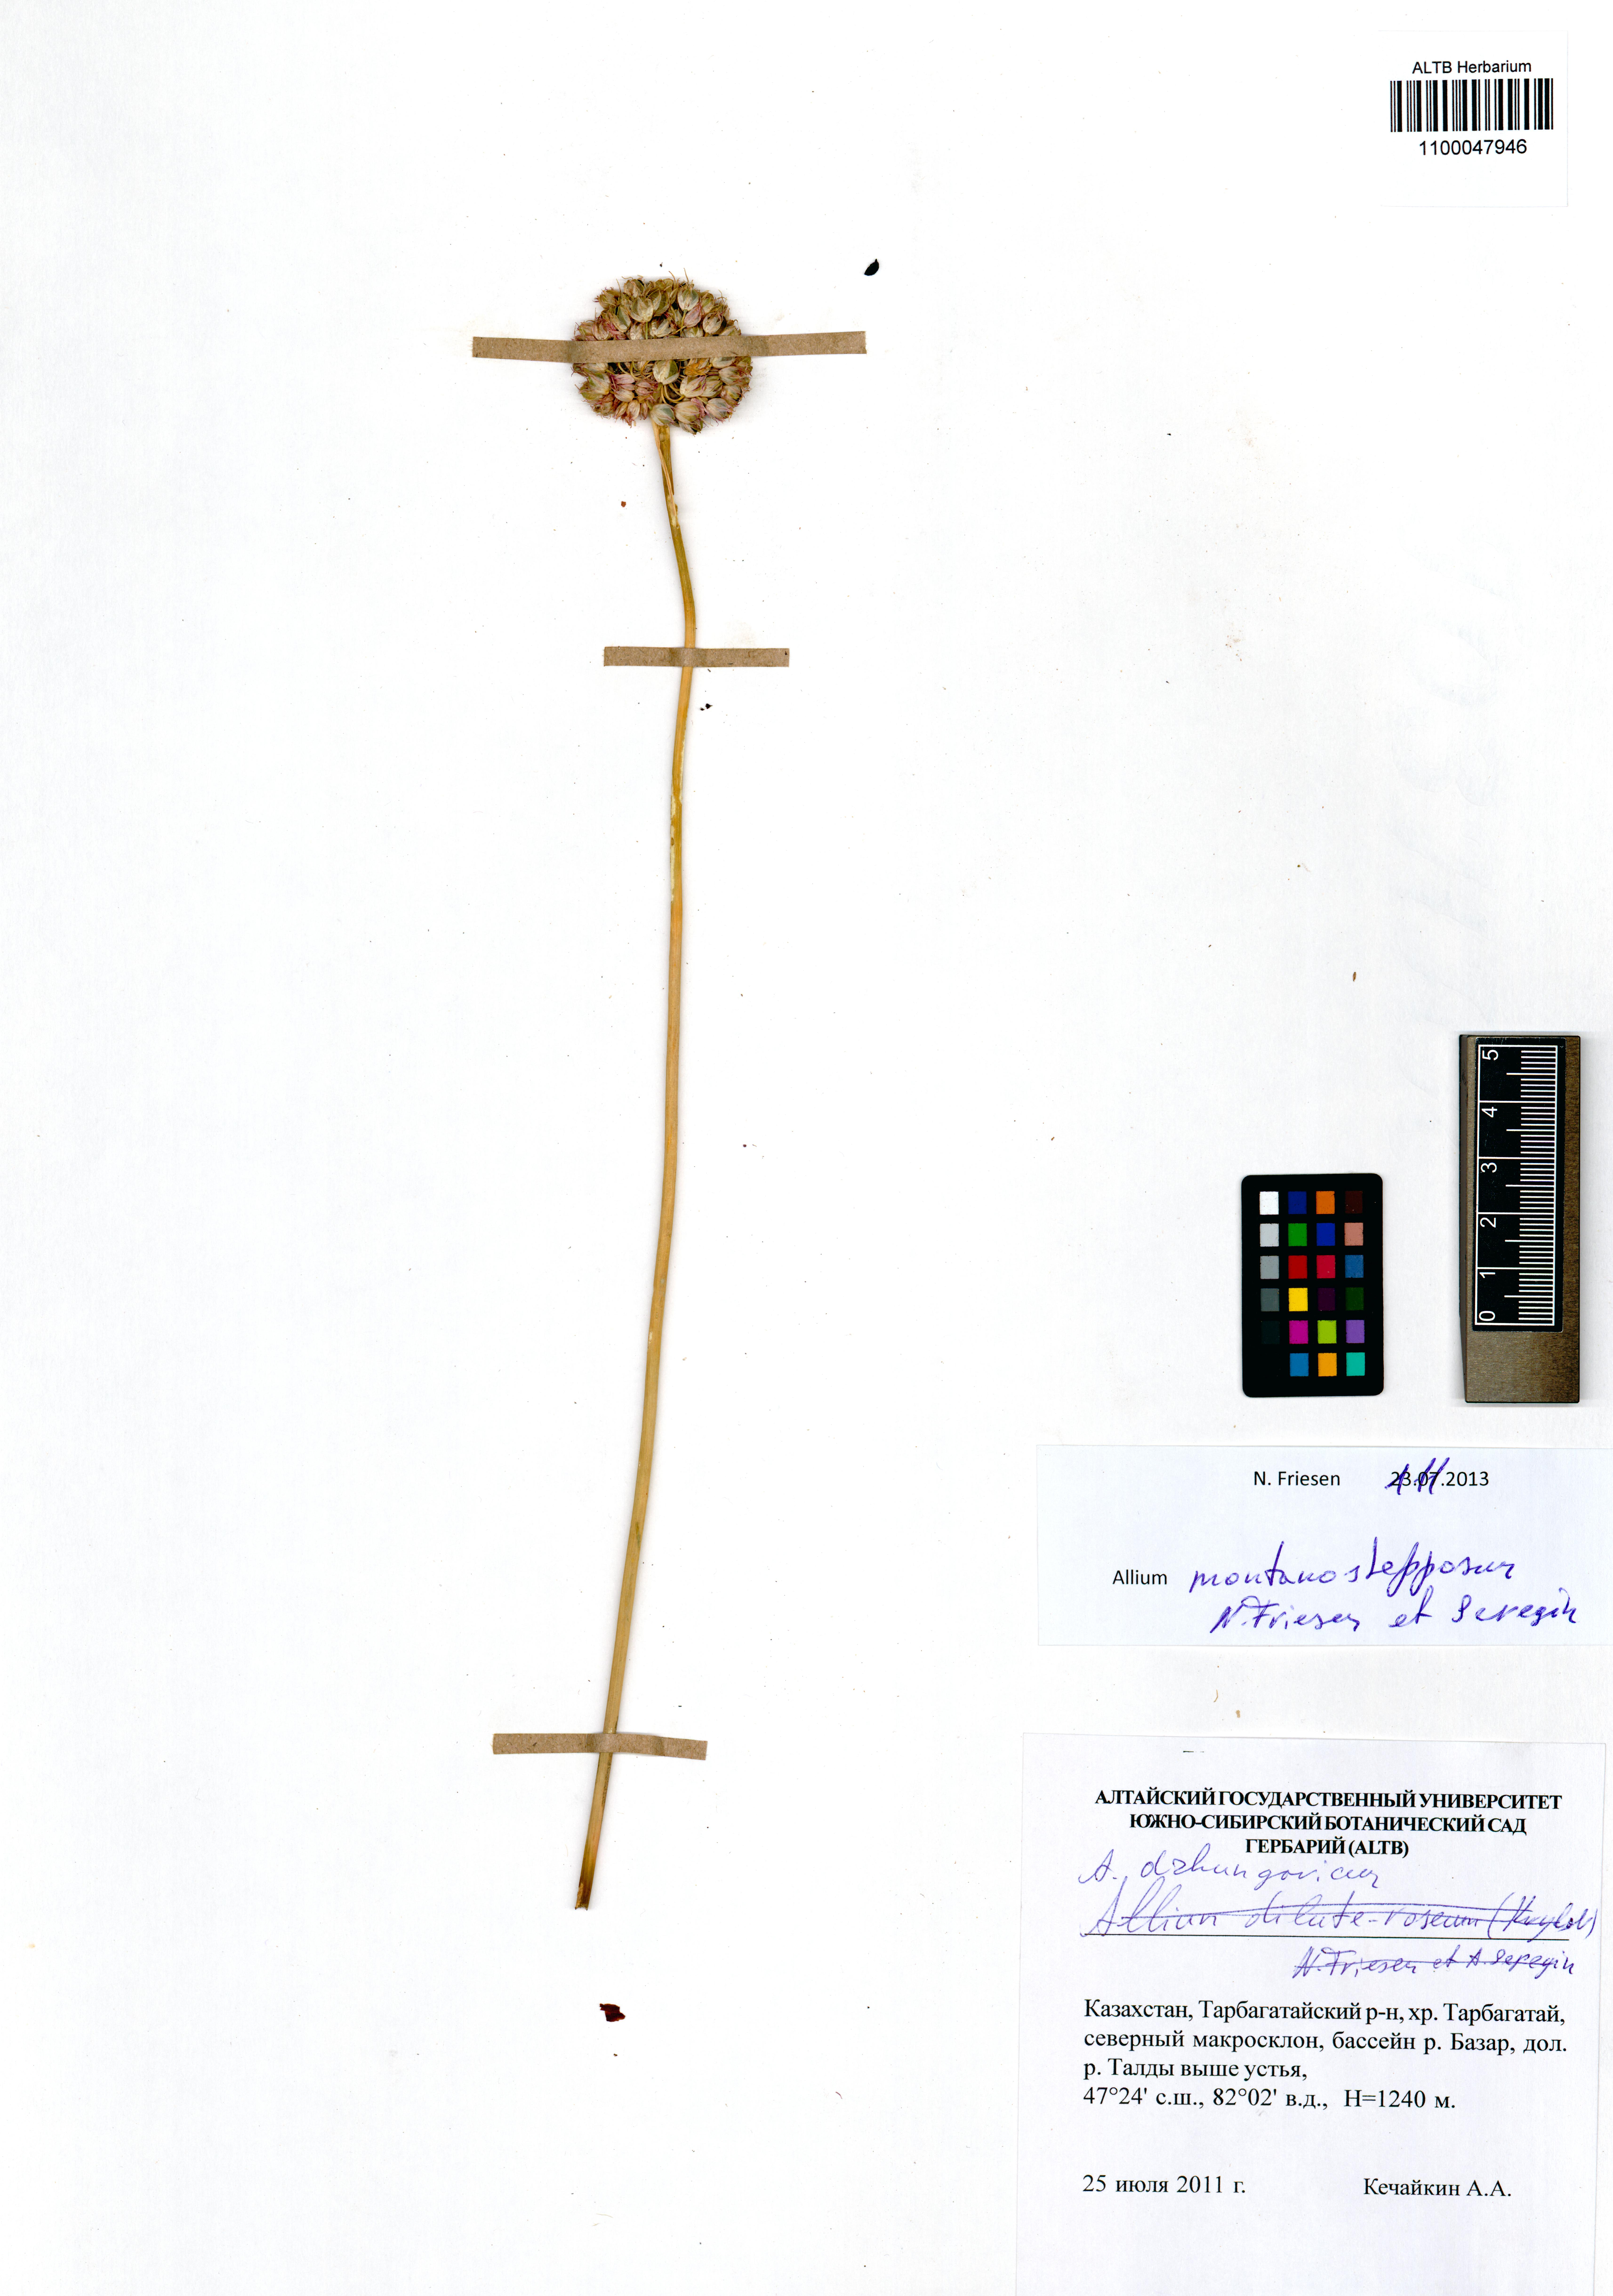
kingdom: Plantae
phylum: Tracheophyta
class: Liliopsida
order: Asparagales
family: Amaryllidaceae
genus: Allium
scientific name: Allium montanostepposum
